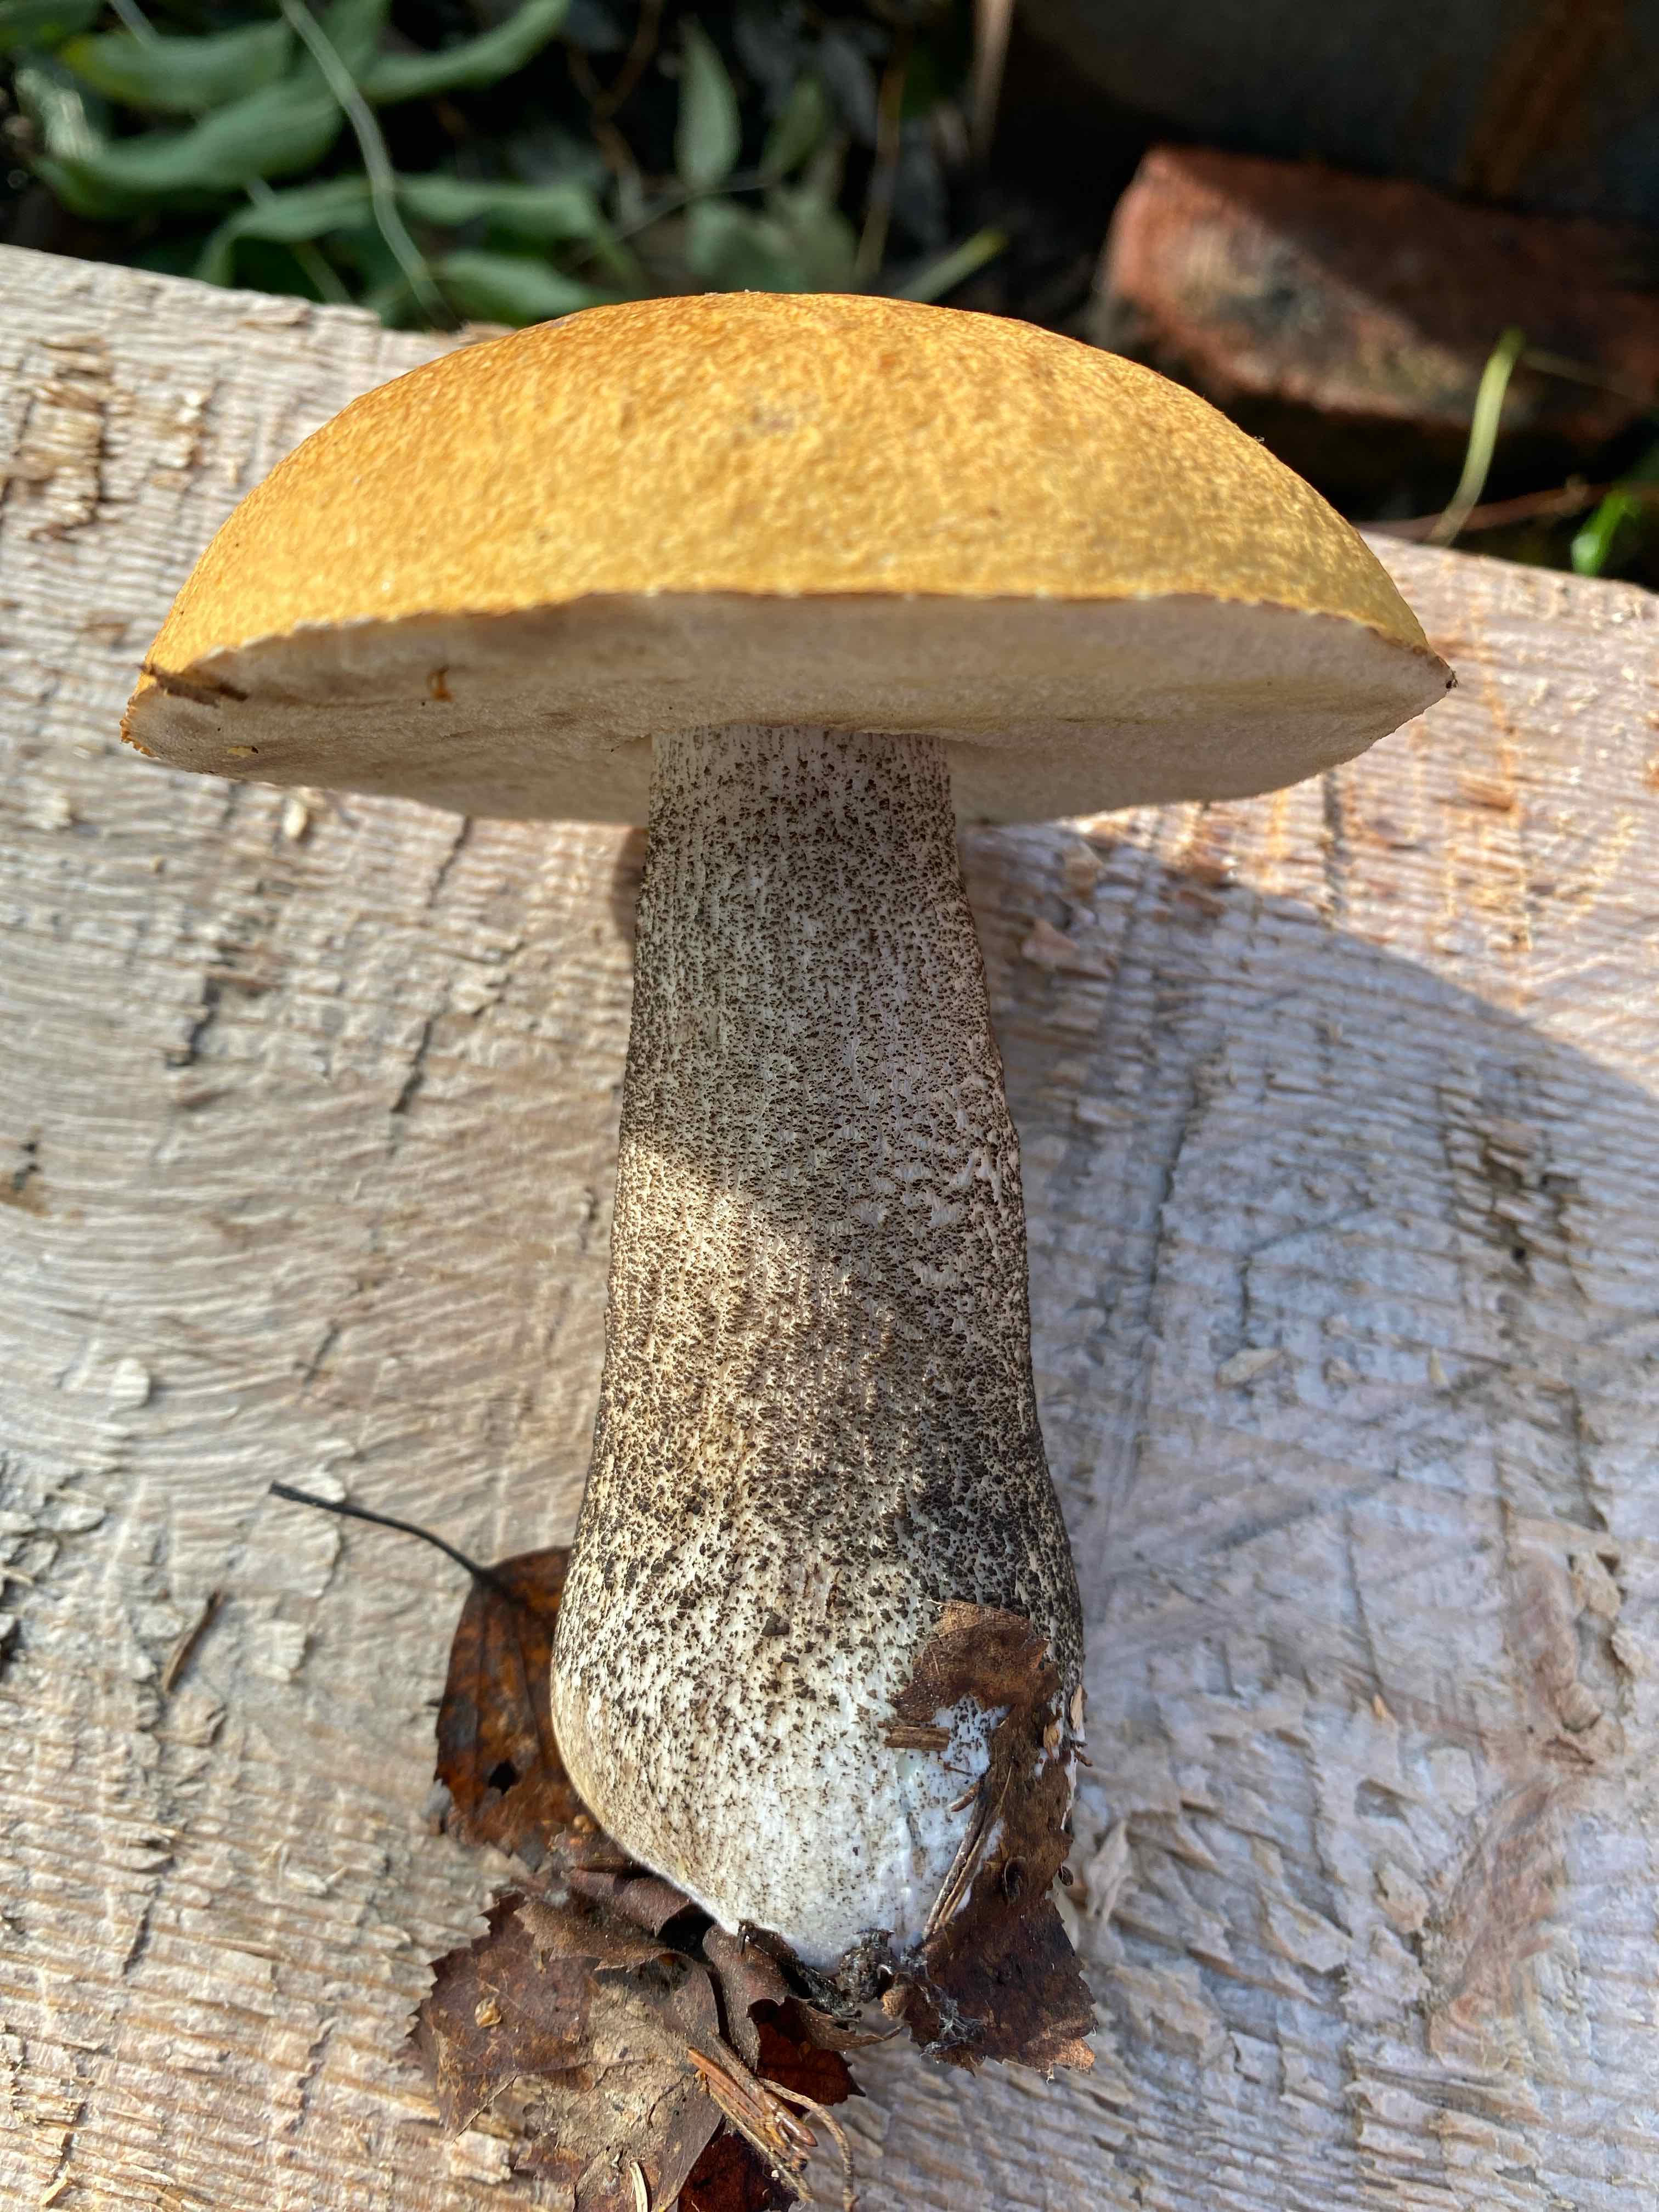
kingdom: Fungi
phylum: Basidiomycota
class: Agaricomycetes
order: Boletales
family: Boletaceae
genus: Leccinum
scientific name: Leccinum versipelle
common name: orange skælrørhat
